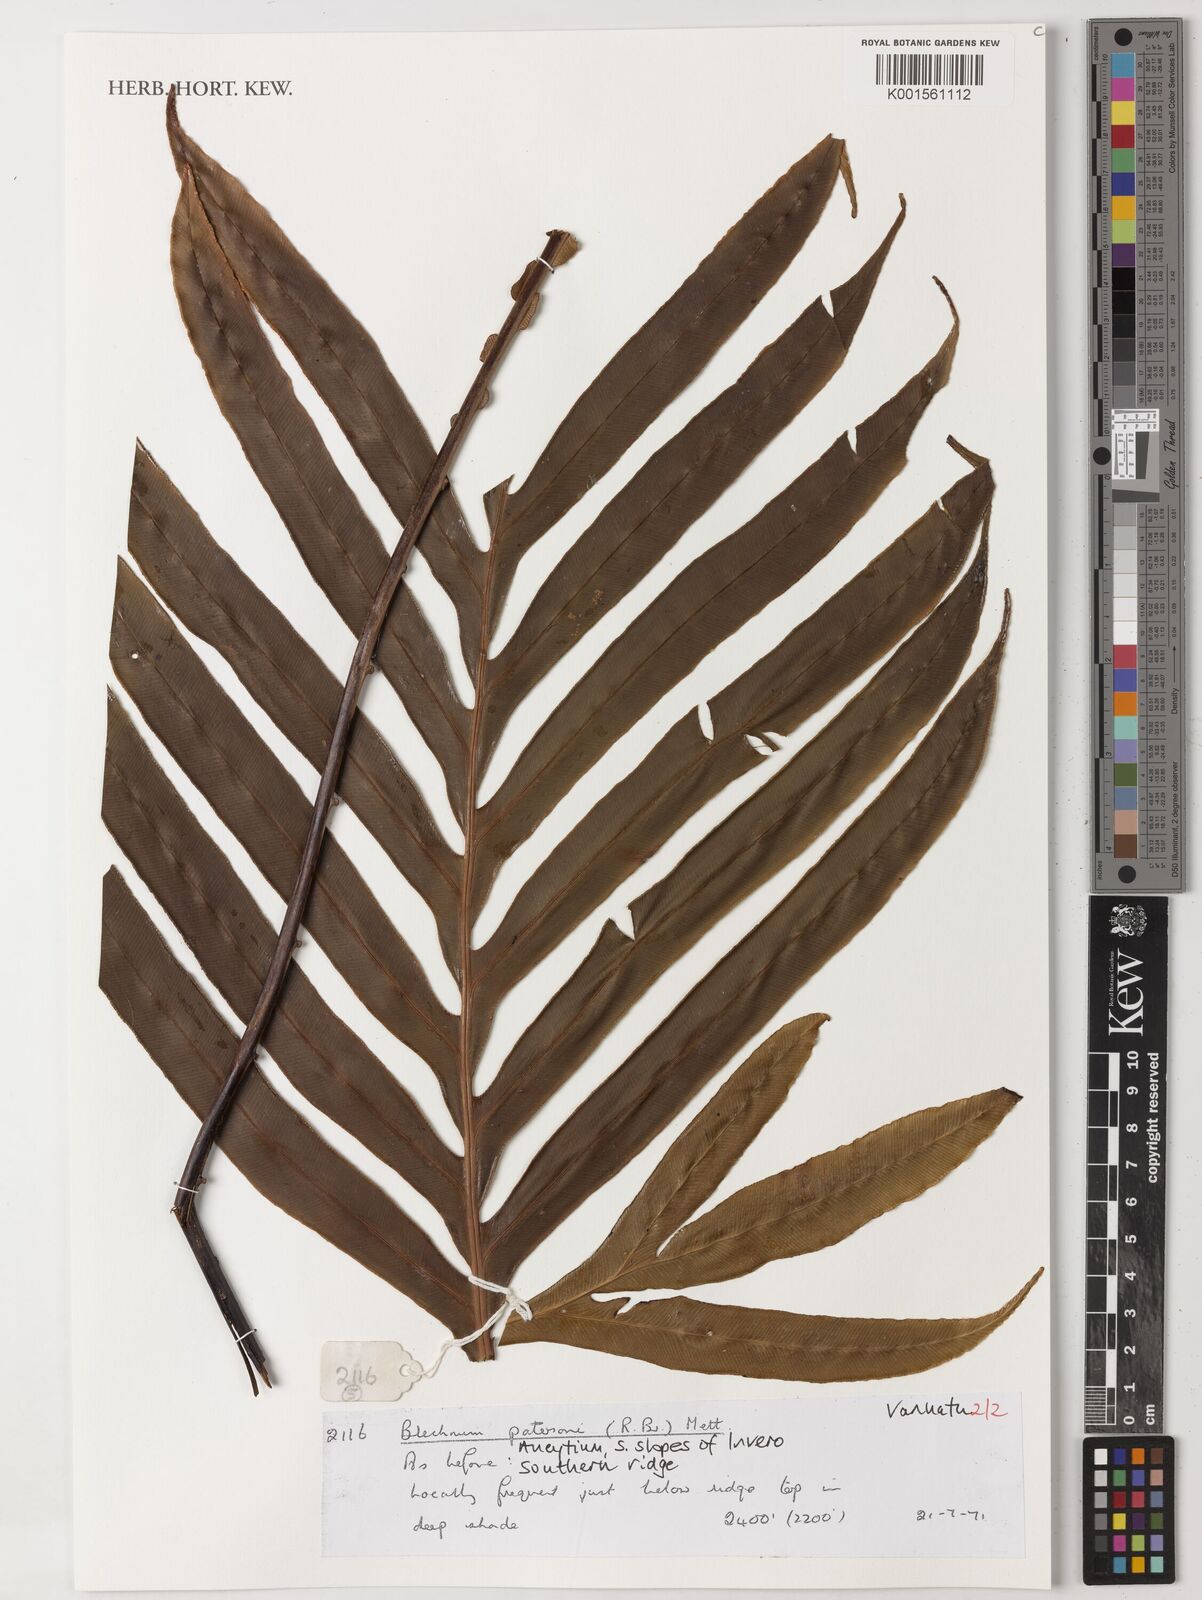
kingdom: Plantae
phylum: Tracheophyta
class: Polypodiopsida
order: Polypodiales
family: Blechnaceae
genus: Austroblechnum
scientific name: Austroblechnum patersonii
